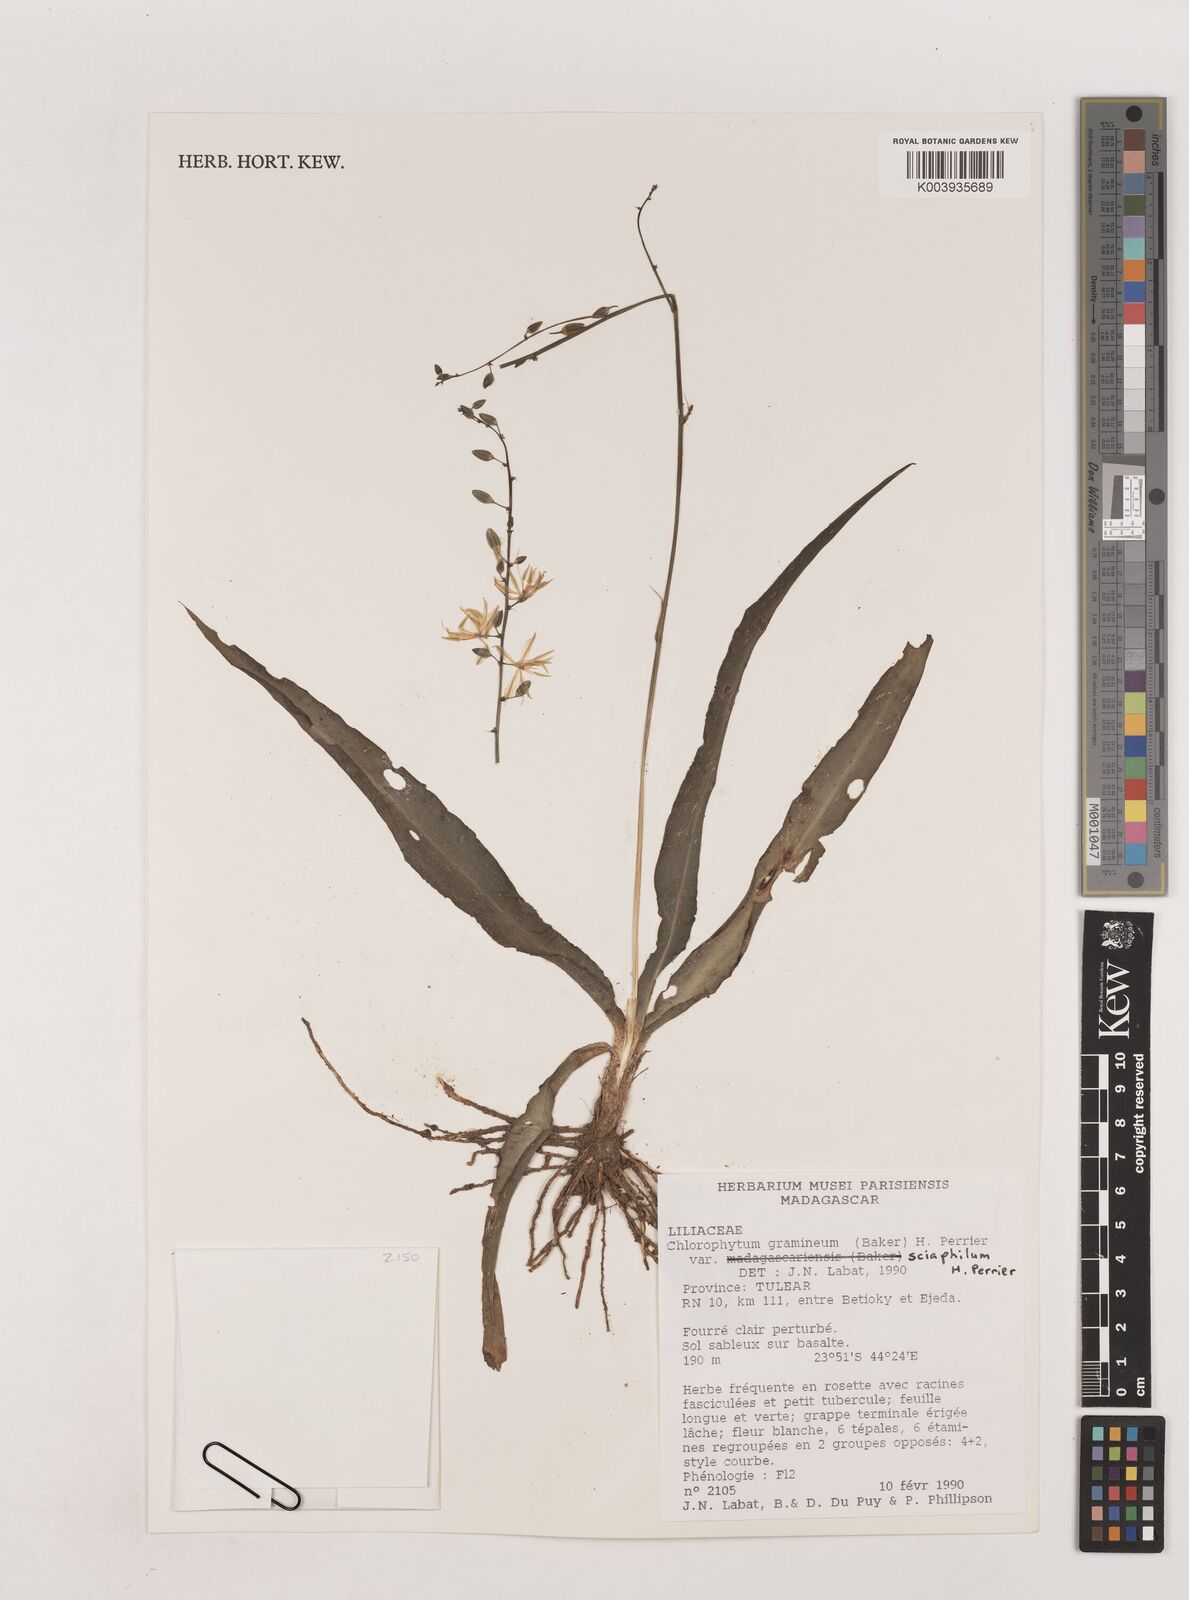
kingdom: Plantae
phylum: Tracheophyta
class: Liliopsida
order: Asparagales
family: Asparagaceae
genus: Chlorophytum
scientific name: Chlorophytum madagascariense
